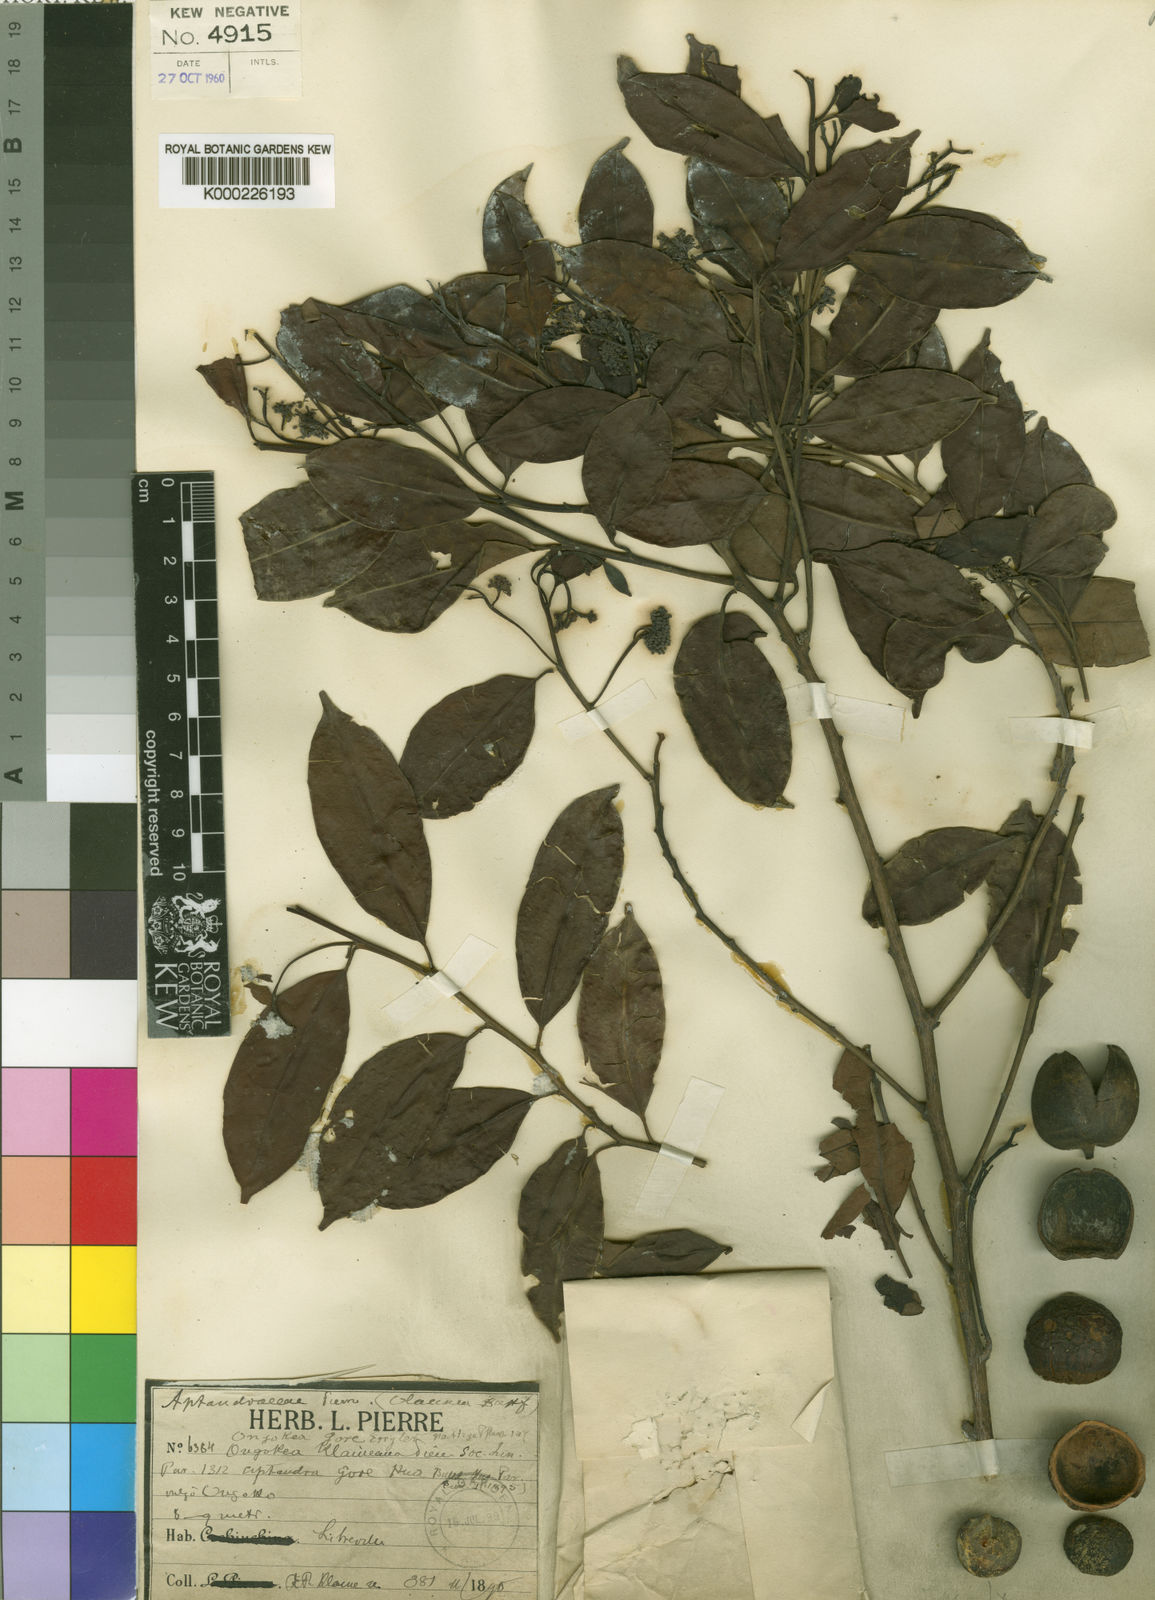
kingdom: Plantae
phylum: Tracheophyta
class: Magnoliopsida
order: Santalales
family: Aptandraceae
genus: Ongokea
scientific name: Ongokea gore
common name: Boleko-nut
